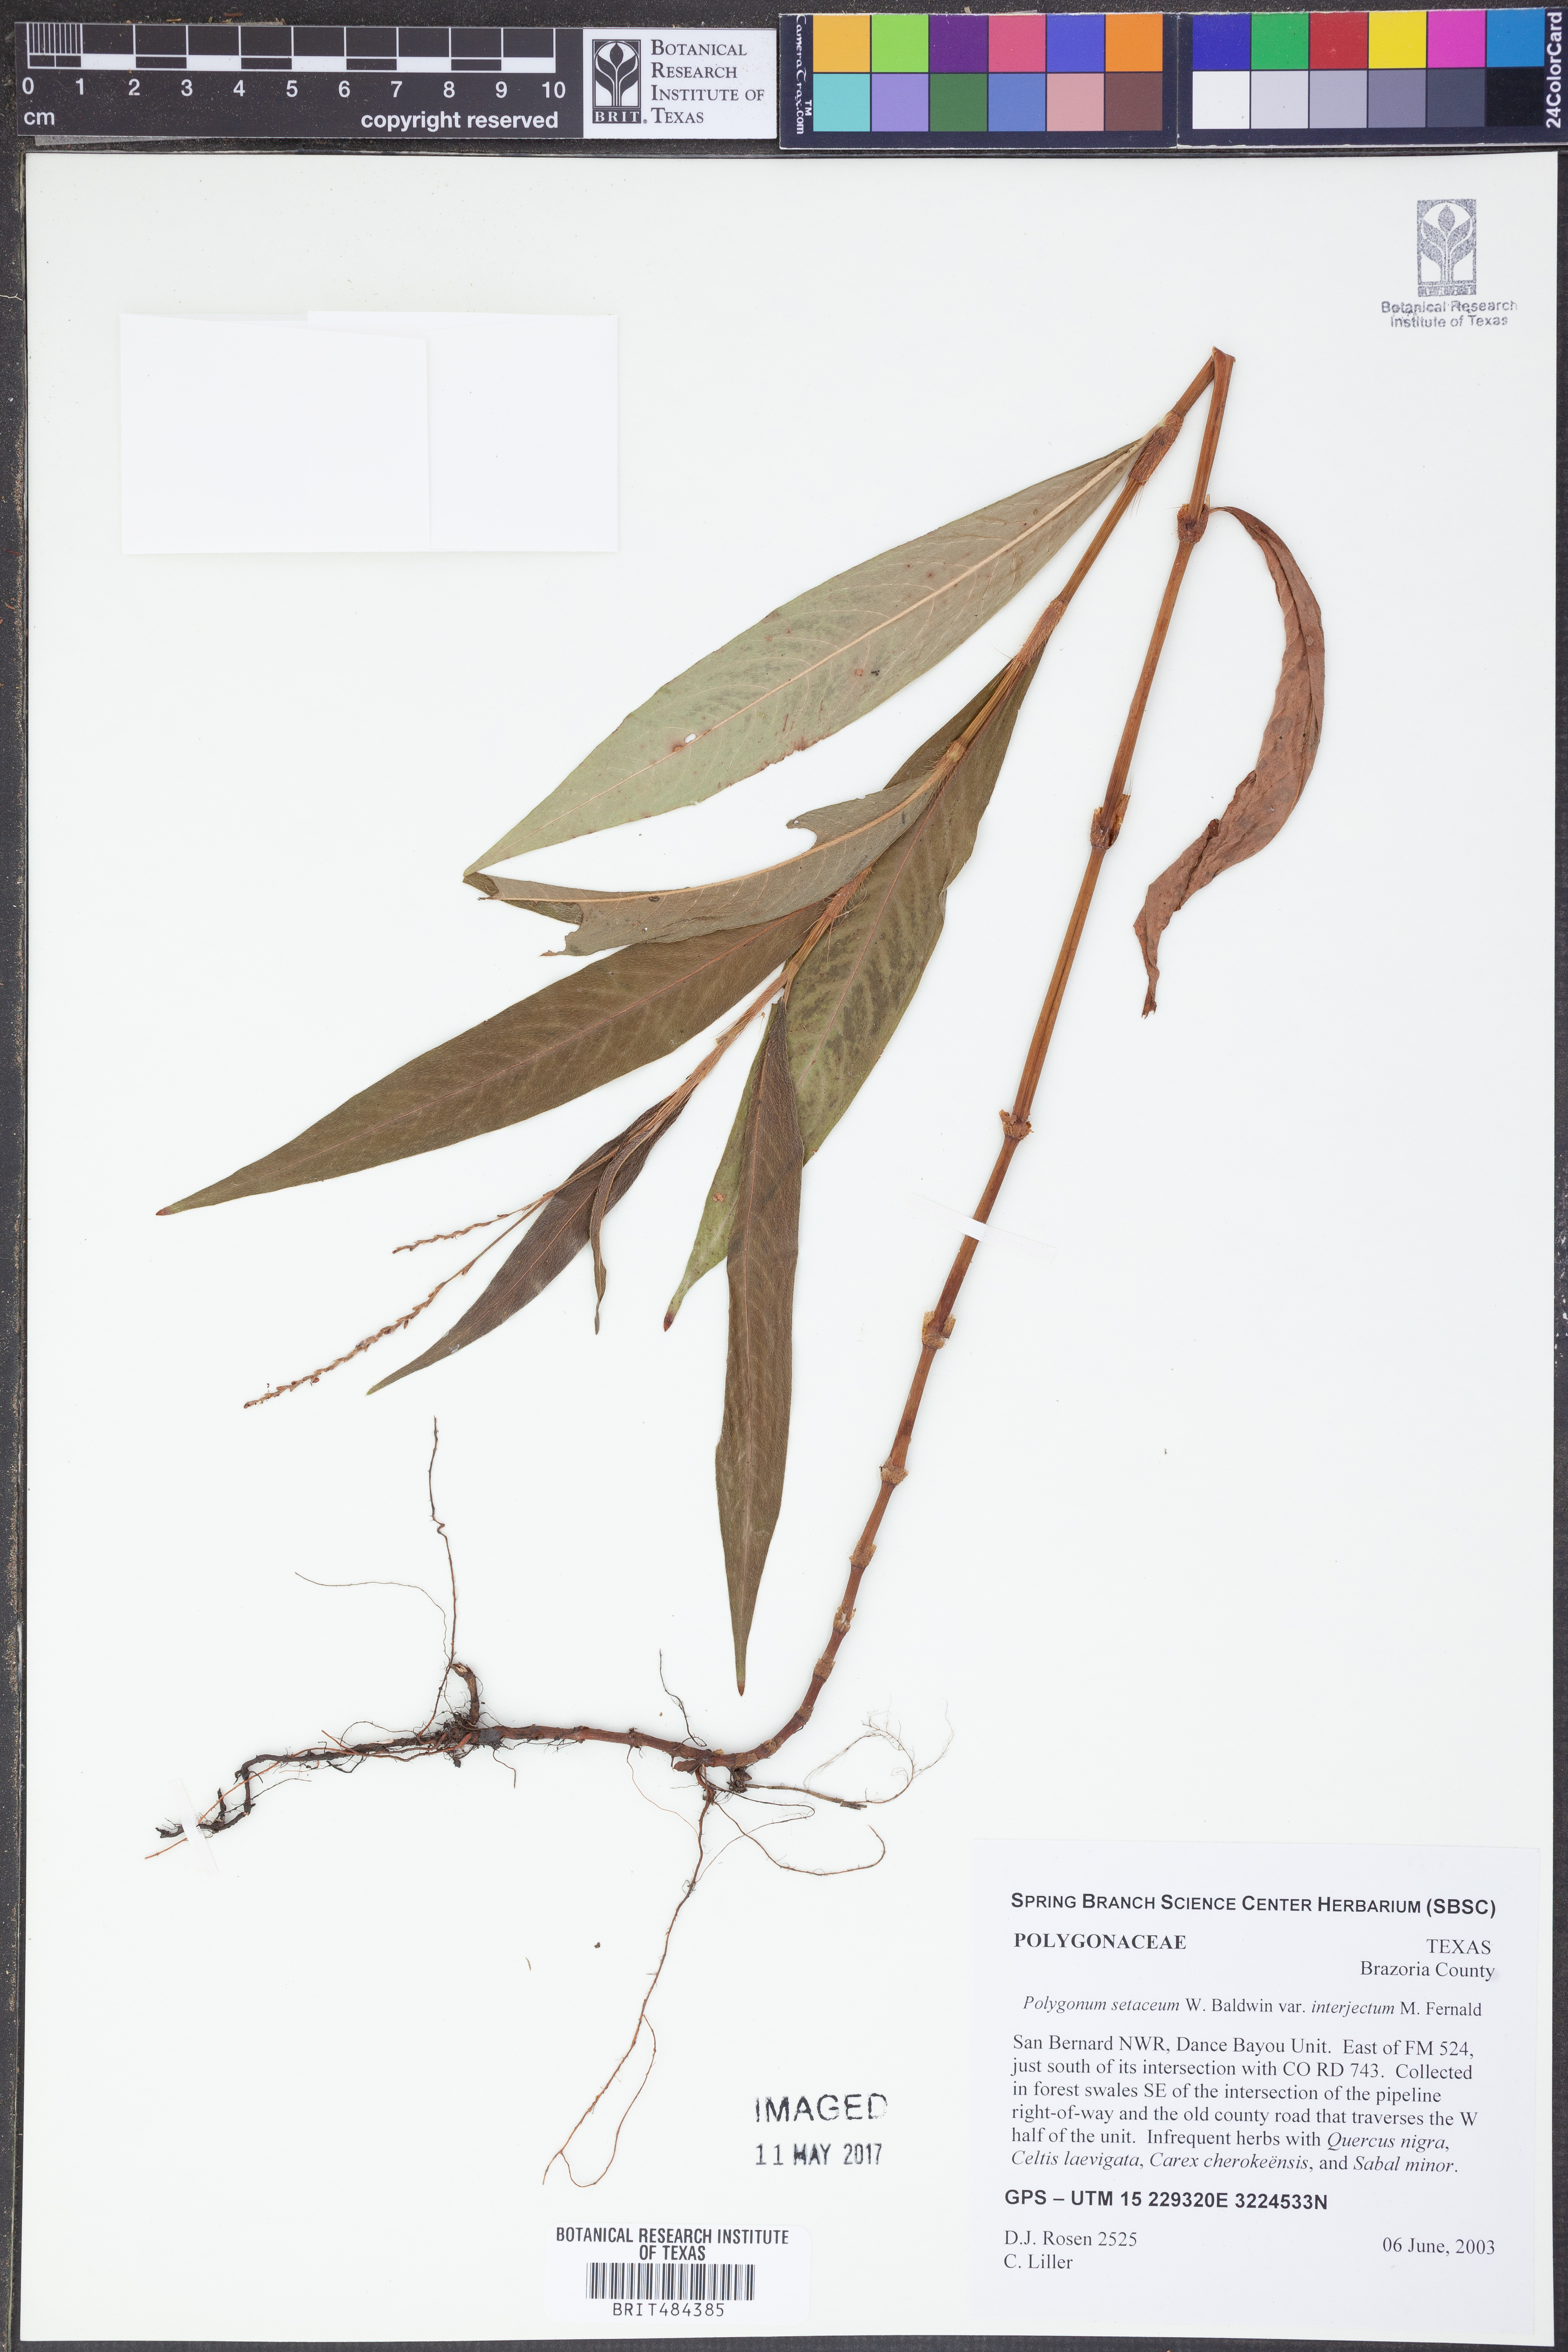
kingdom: Plantae
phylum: Tracheophyta
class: Magnoliopsida
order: Caryophyllales
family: Polygonaceae
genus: Persicaria
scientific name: Persicaria setacea
